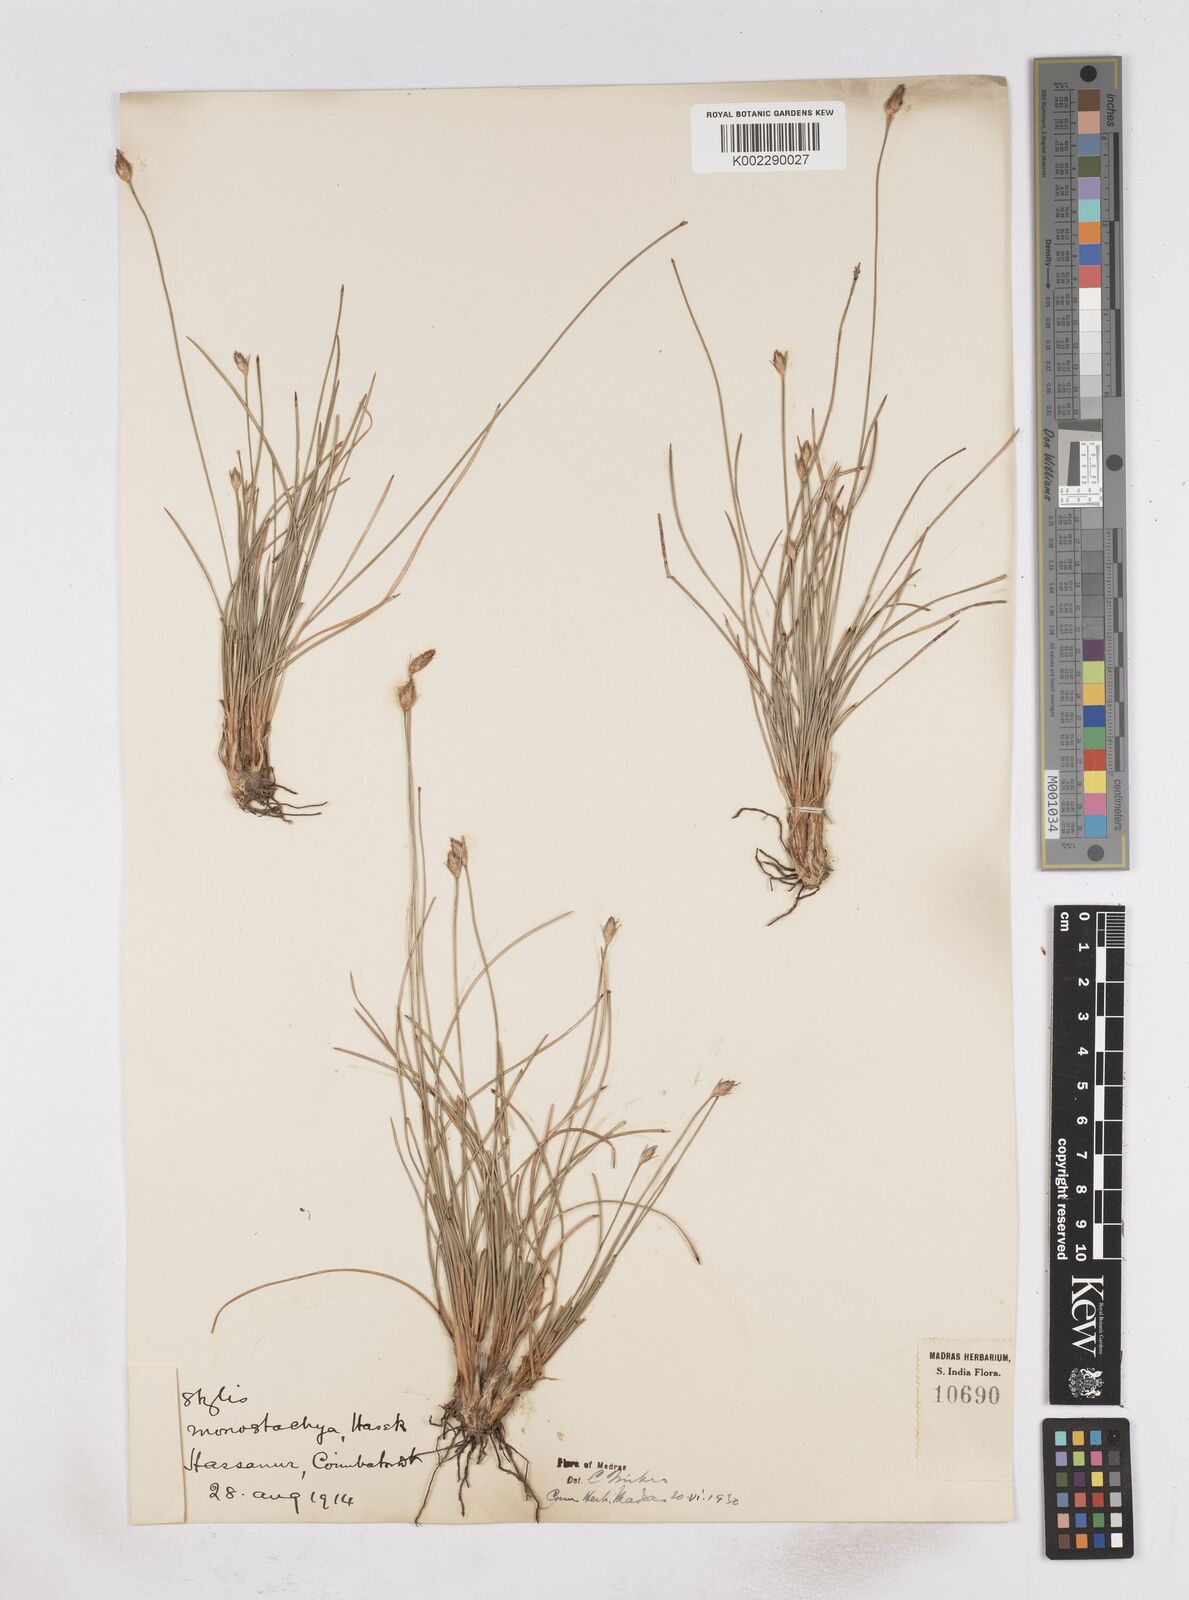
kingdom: Plantae
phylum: Tracheophyta
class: Liliopsida
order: Poales
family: Cyperaceae
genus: Abildgaardia
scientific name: Abildgaardia ovata
